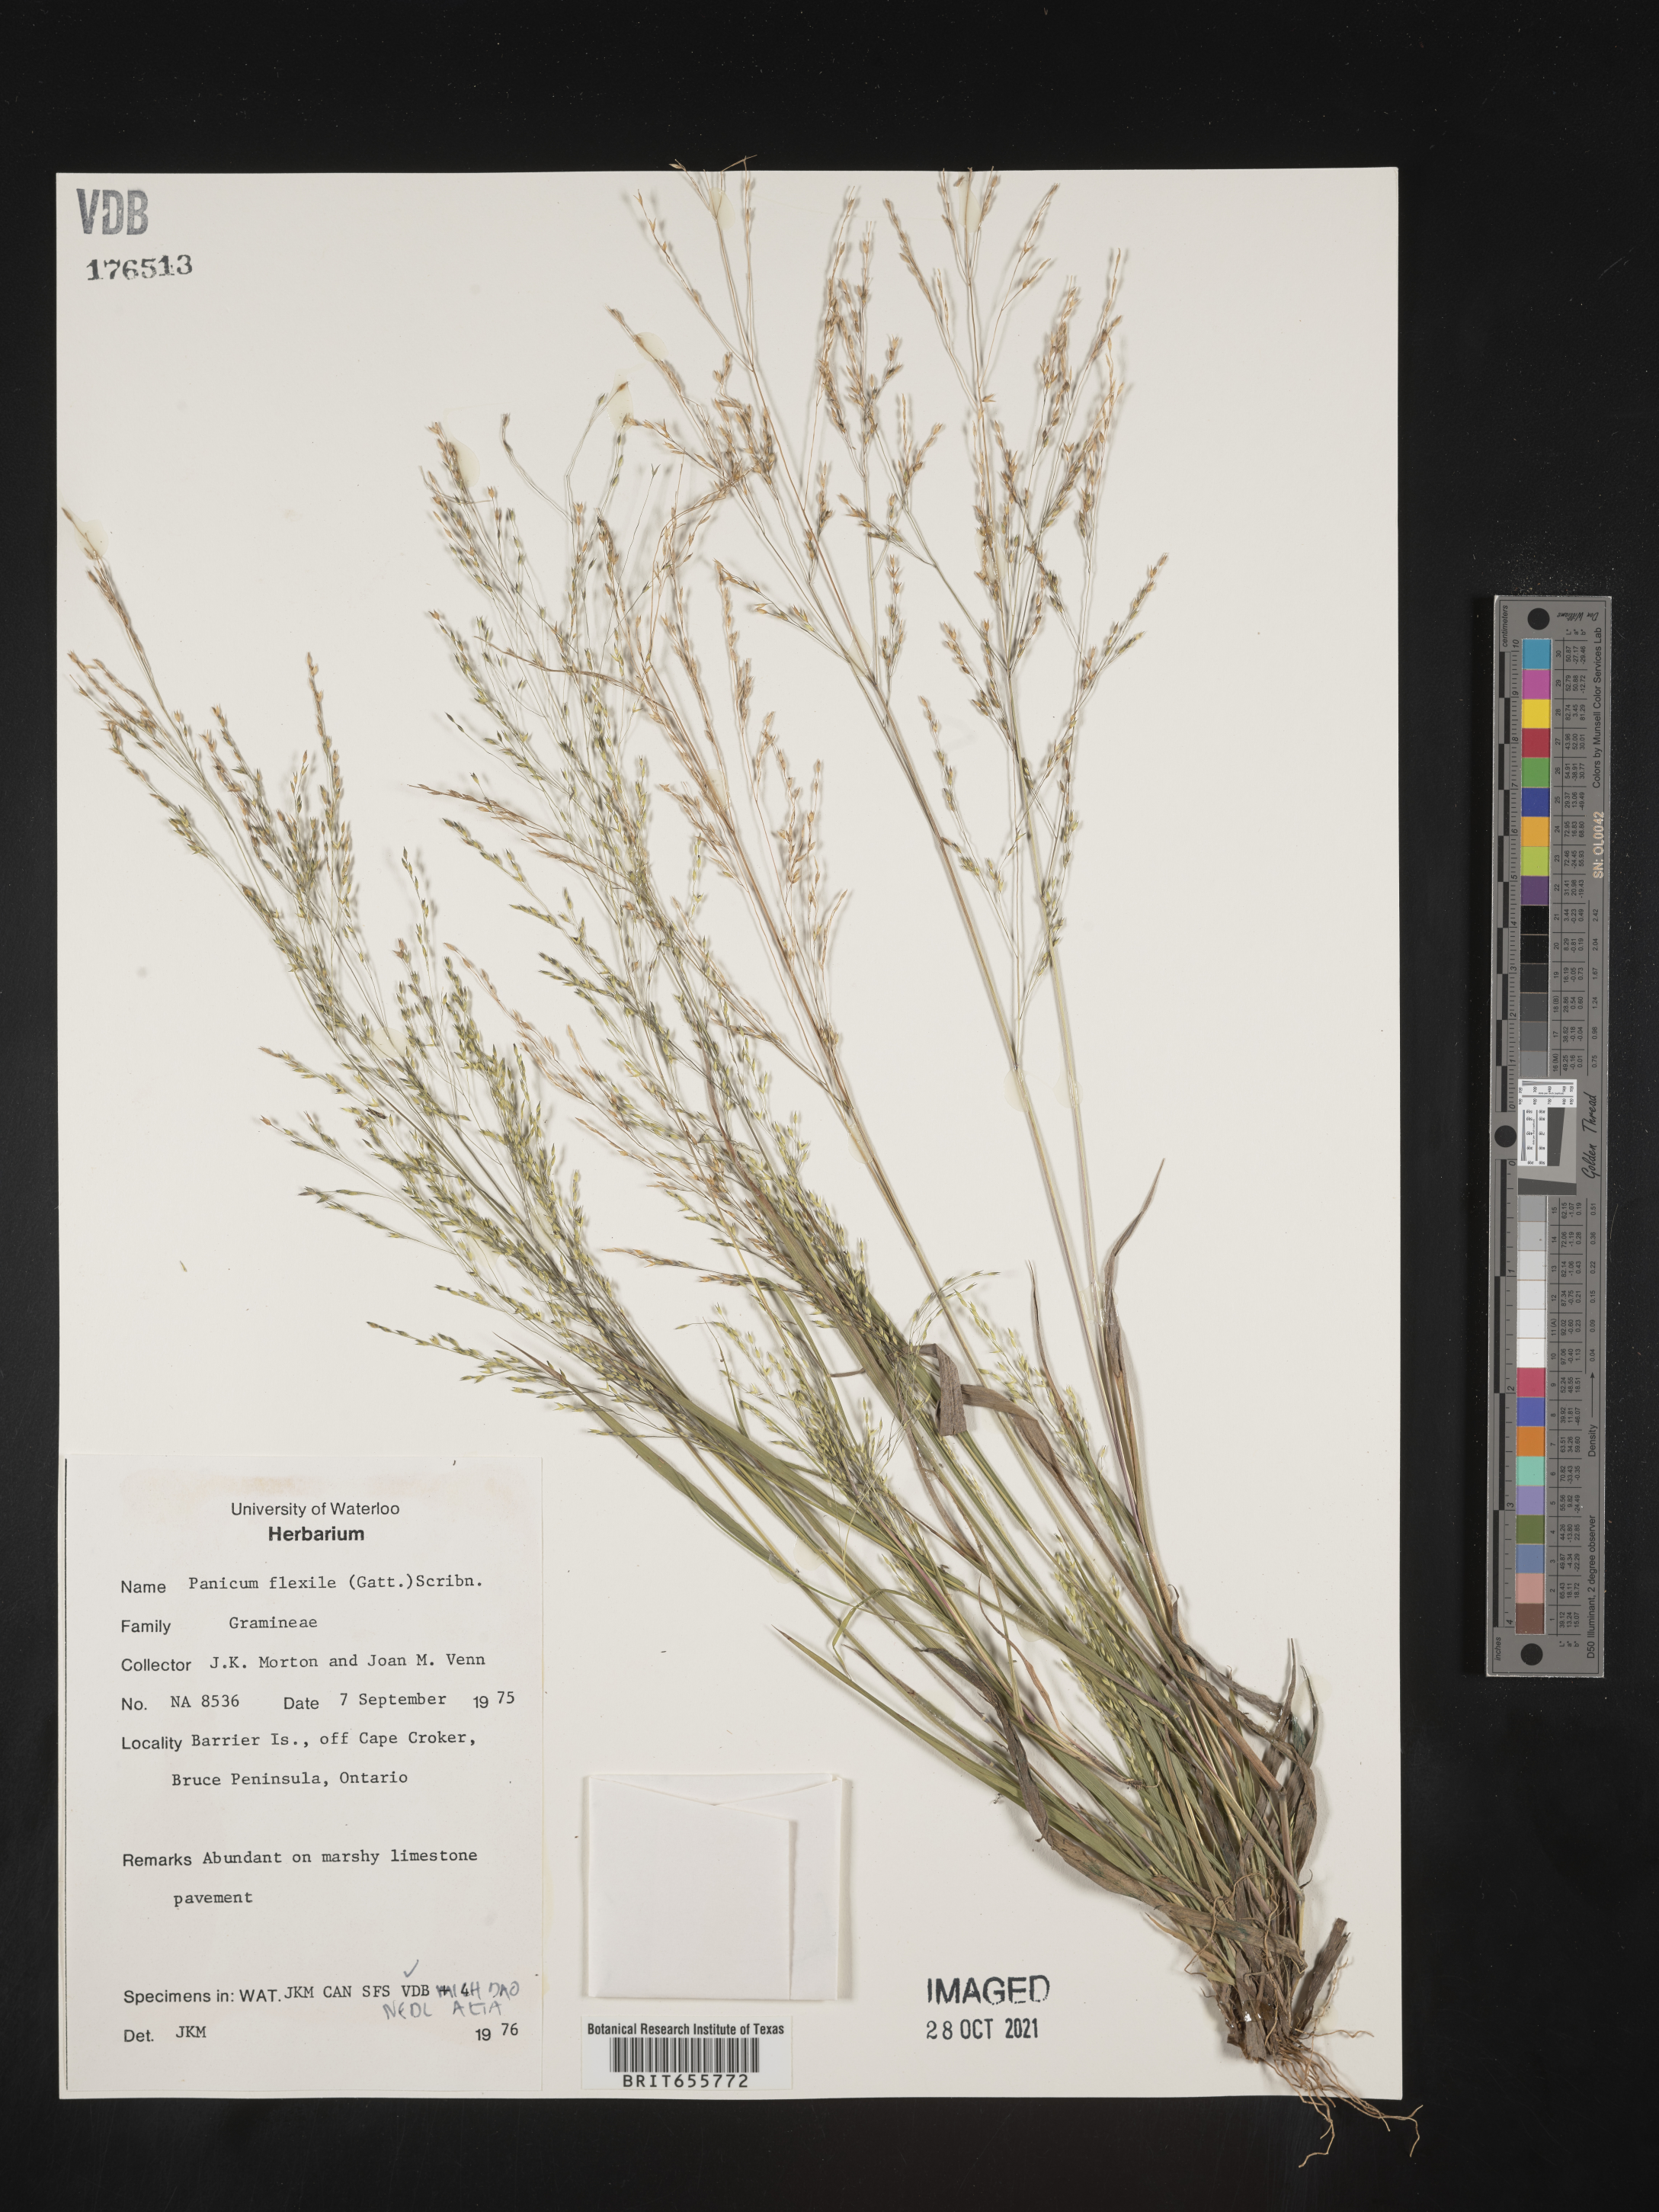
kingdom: Plantae
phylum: Tracheophyta
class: Liliopsida
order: Poales
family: Poaceae
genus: Panicum
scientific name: Panicum
